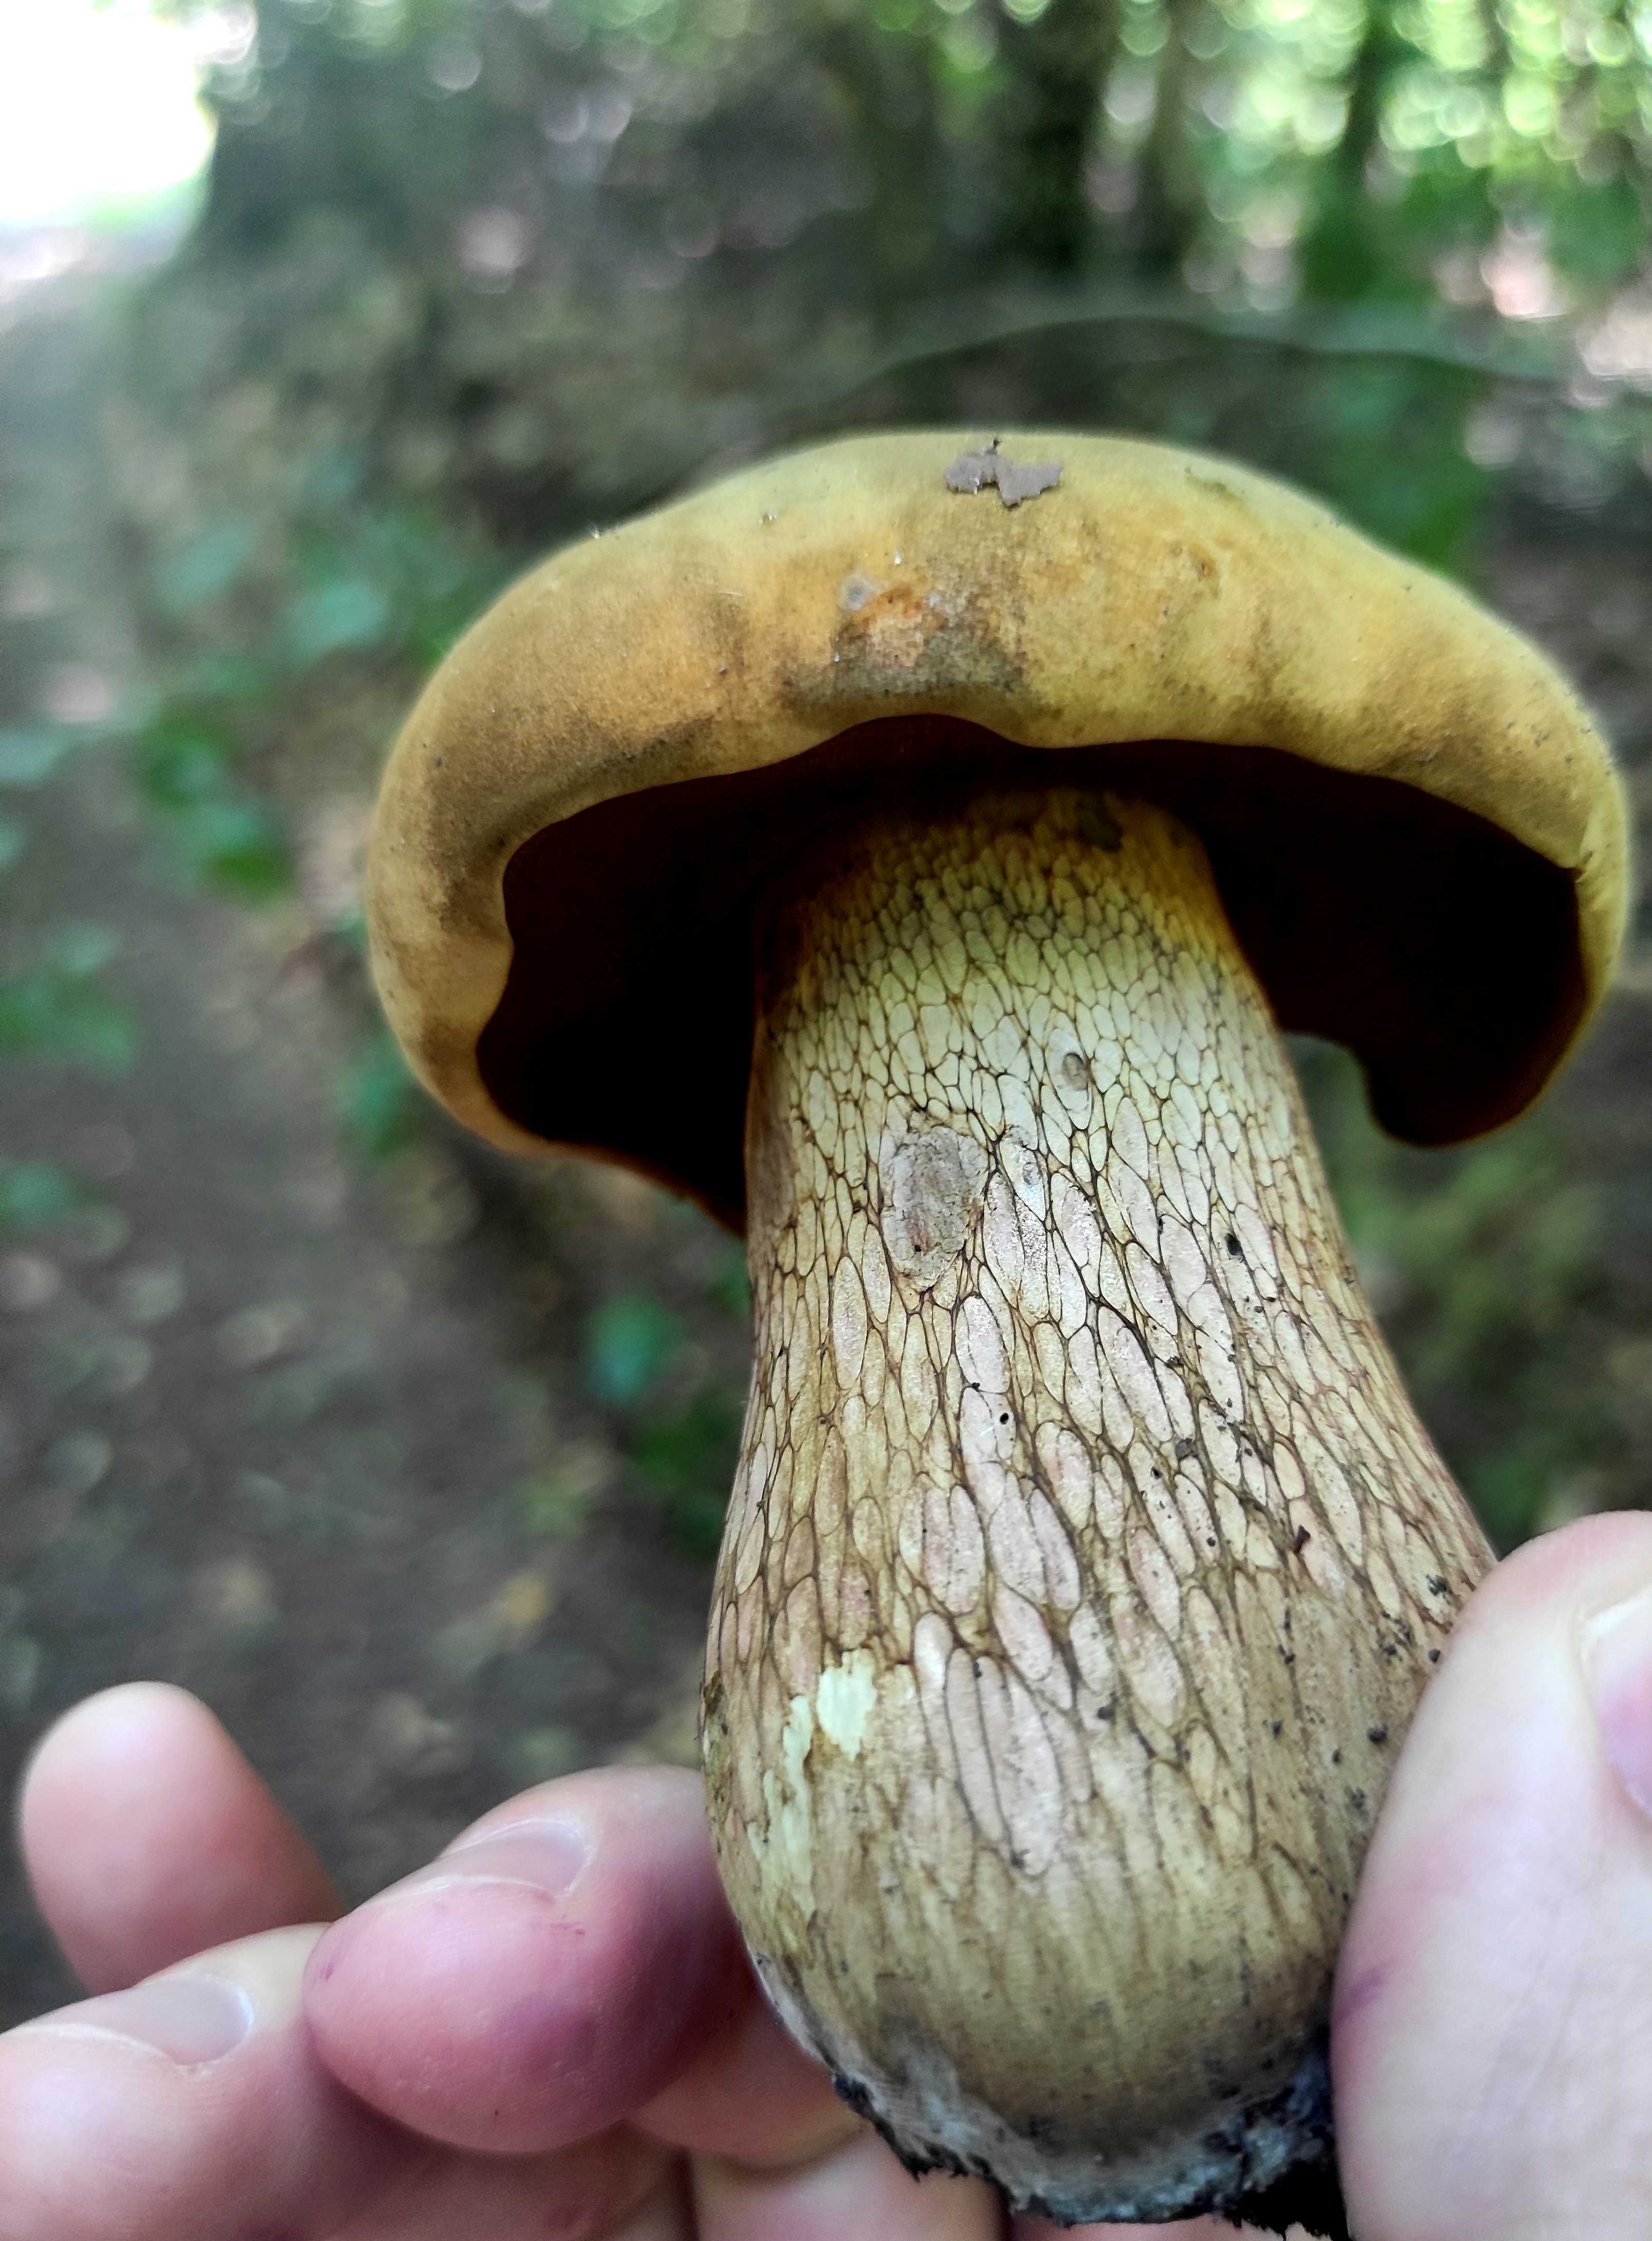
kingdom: Fungi
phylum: Basidiomycota
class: Agaricomycetes
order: Boletales
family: Boletaceae
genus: Suillellus
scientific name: Suillellus luridus
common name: netstokket indigorørhat
